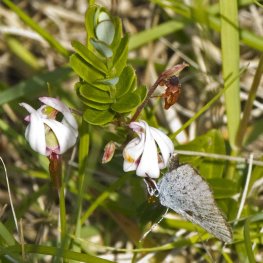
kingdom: Animalia
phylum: Arthropoda
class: Insecta
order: Lepidoptera
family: Sesiidae
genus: Sesia
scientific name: Sesia Lycaena epixanthe
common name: Bog Copper
